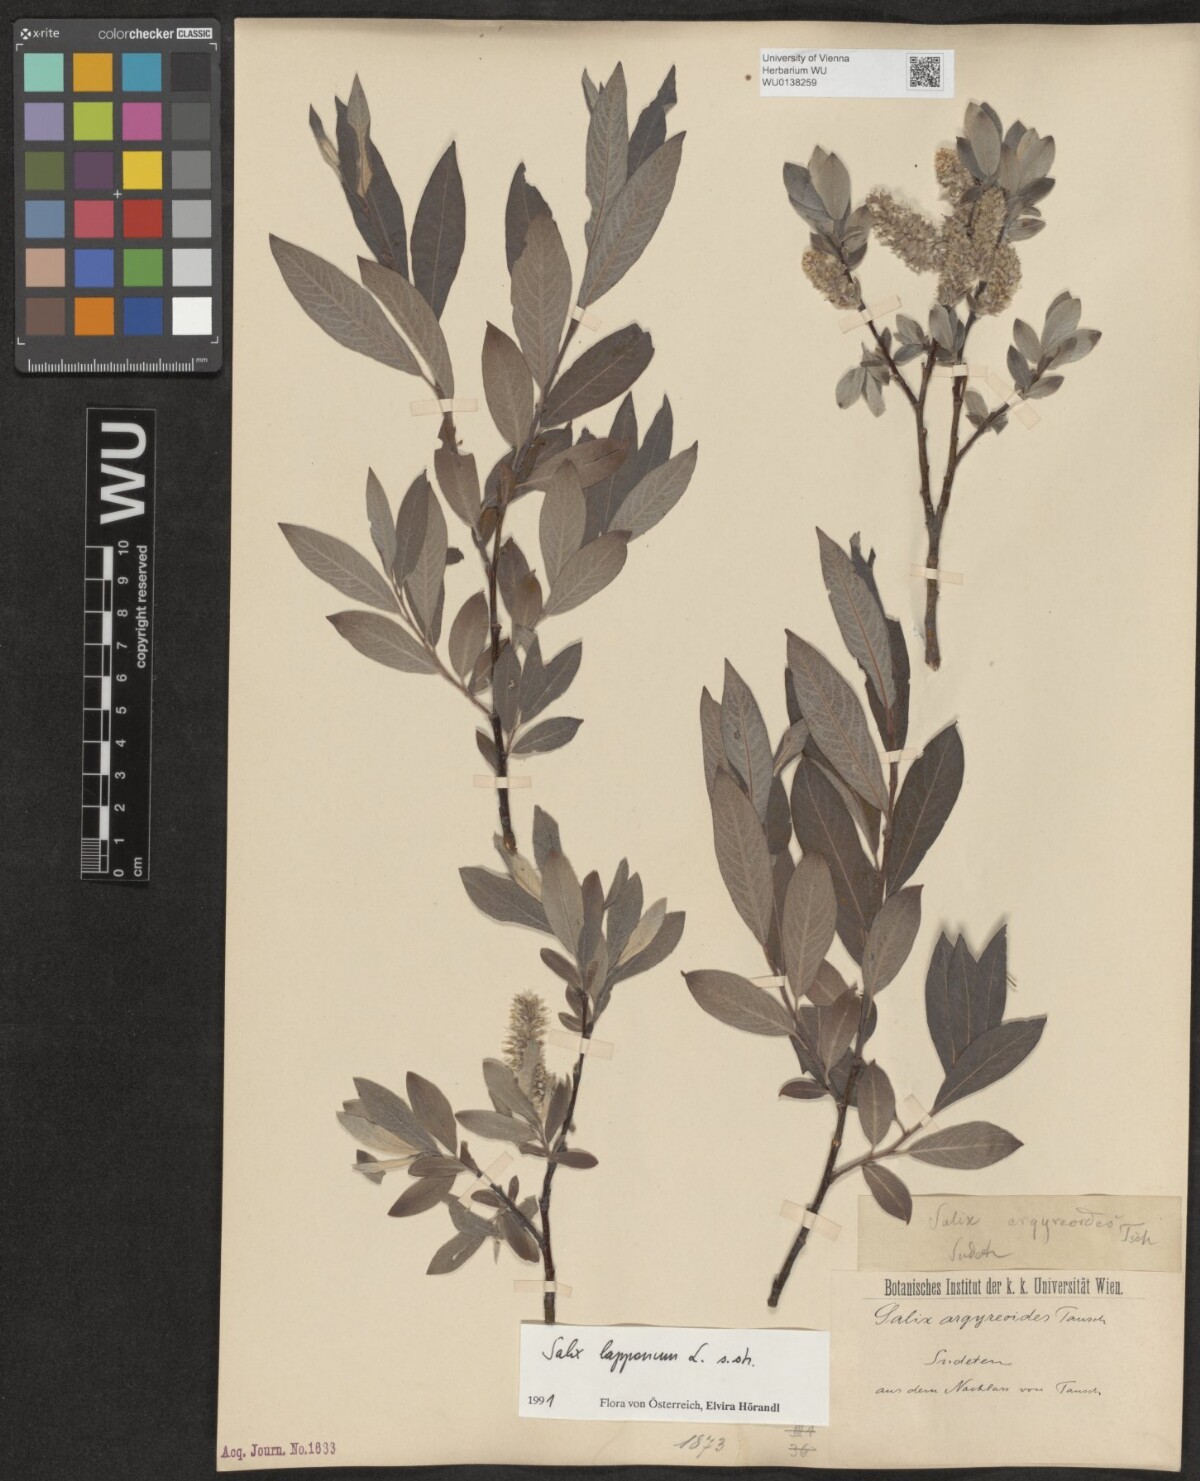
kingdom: Plantae
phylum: Tracheophyta
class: Magnoliopsida
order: Malpighiales
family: Salicaceae
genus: Salix
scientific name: Salix lapponum
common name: Downy willow
